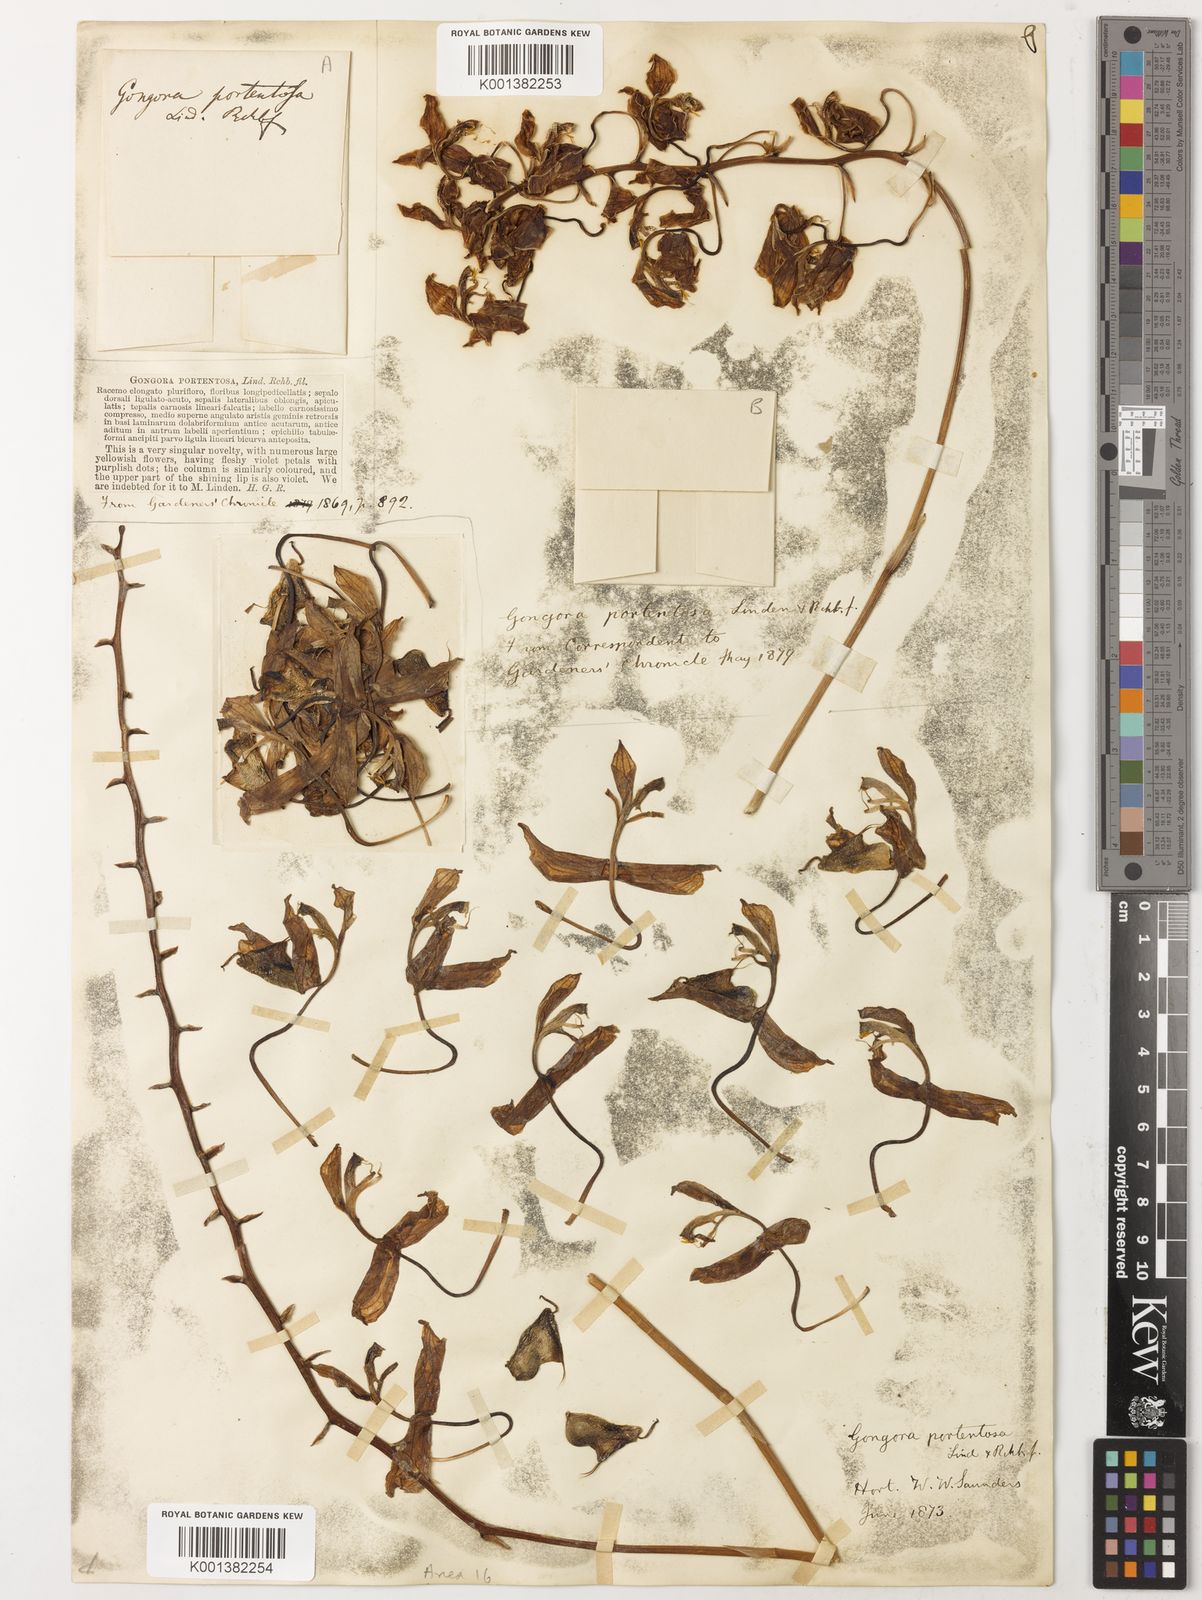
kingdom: Plantae
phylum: Tracheophyta
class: Liliopsida
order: Asparagales
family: Orchidaceae
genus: Gongora
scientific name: Gongora portentosa
